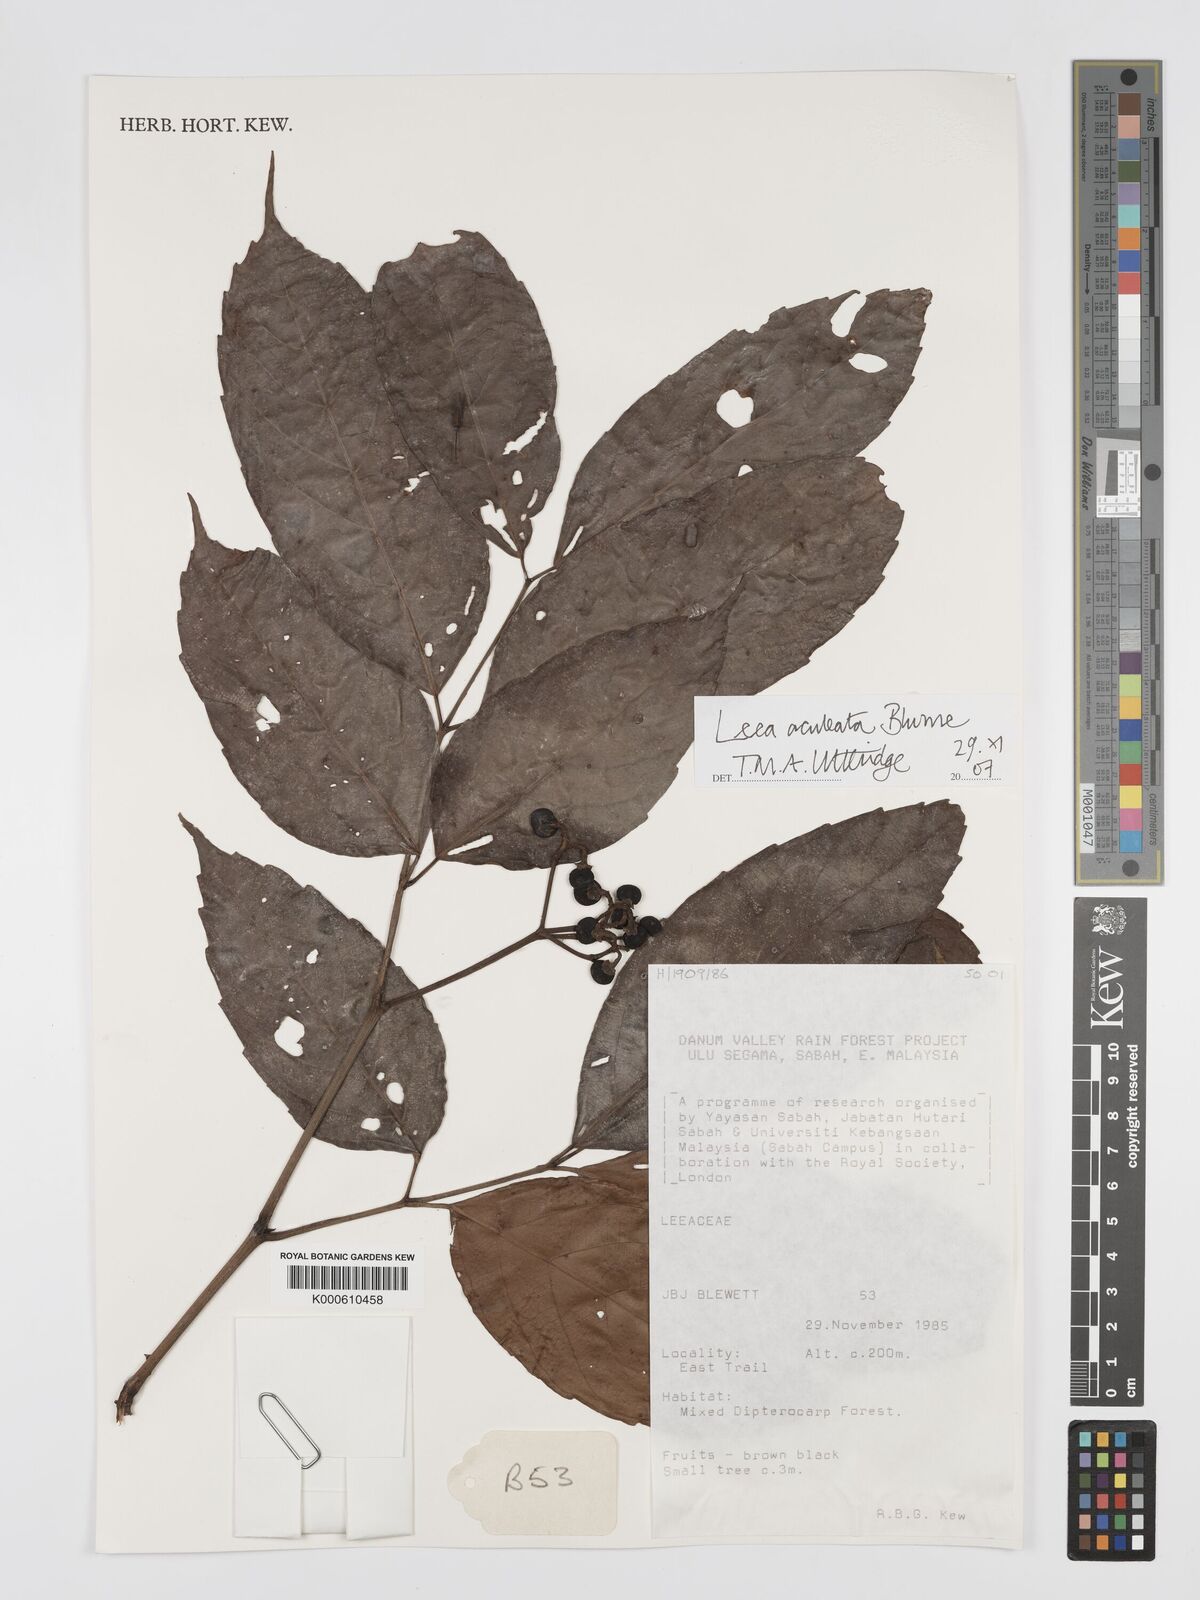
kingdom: Plantae
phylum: Tracheophyta
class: Magnoliopsida
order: Vitales
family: Vitaceae
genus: Leea
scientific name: Leea aculeata
